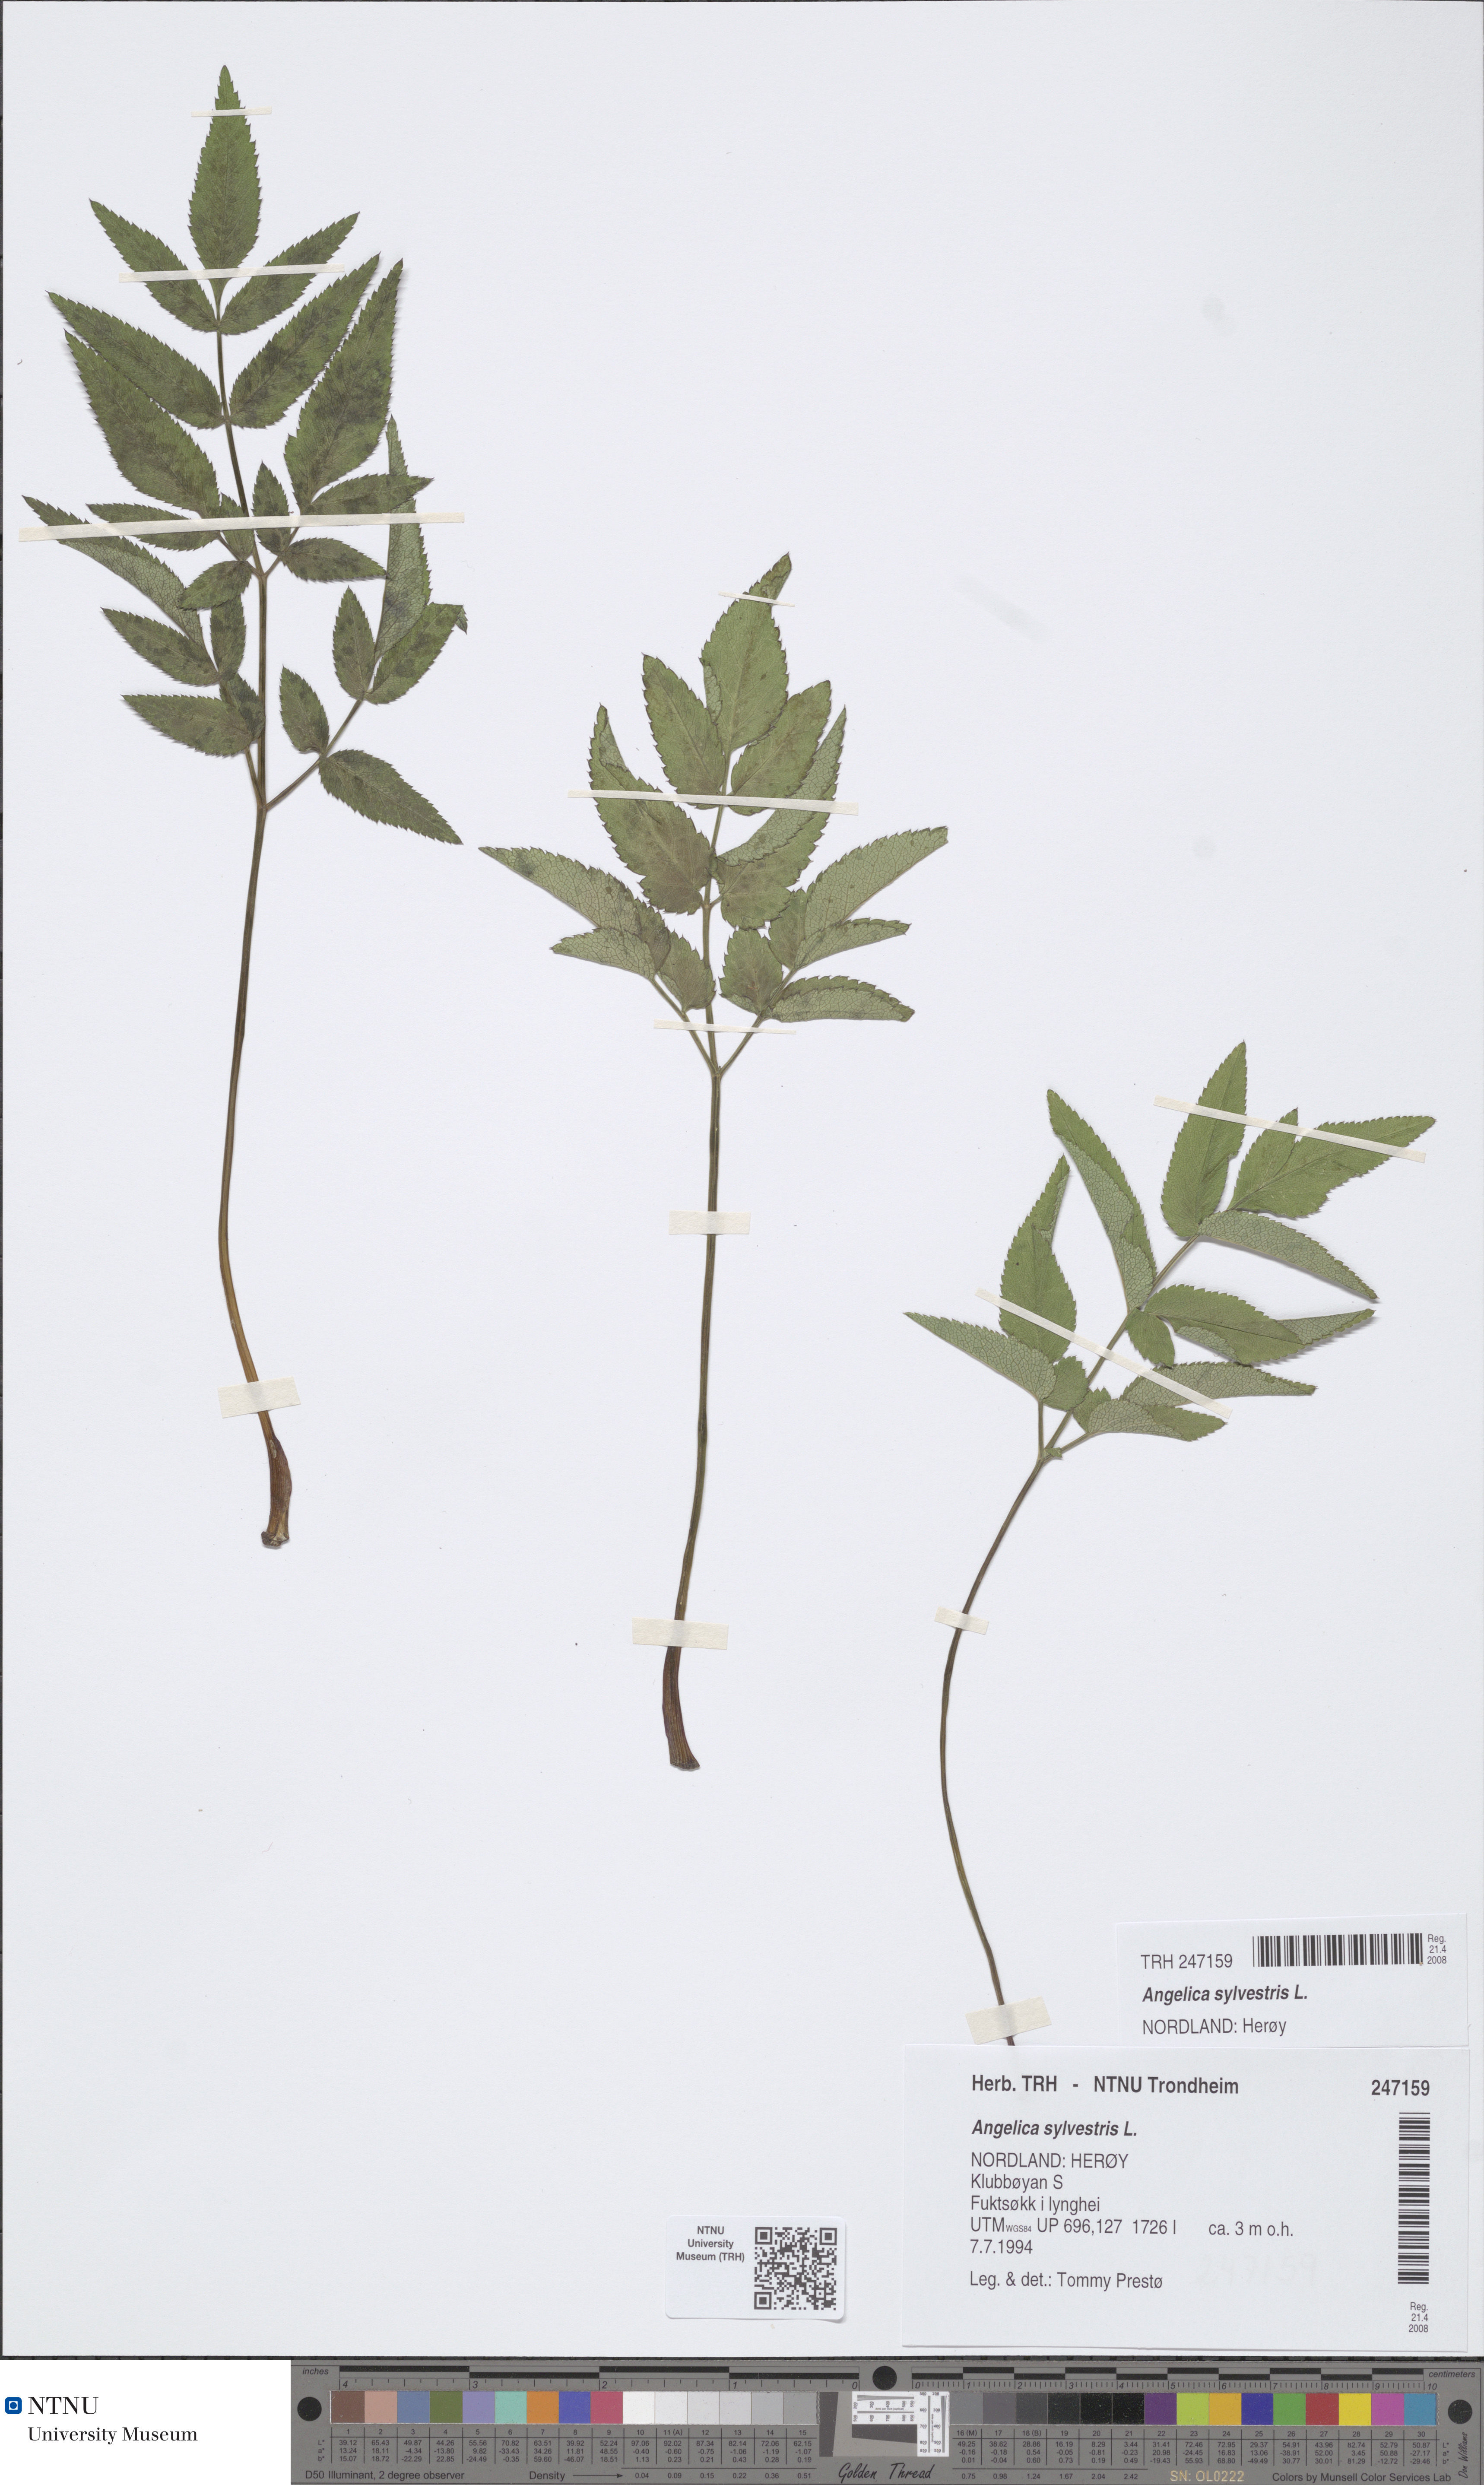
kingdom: Plantae
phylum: Tracheophyta
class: Magnoliopsida
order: Apiales
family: Apiaceae
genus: Angelica
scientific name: Angelica sylvestris
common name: Wild angelica
